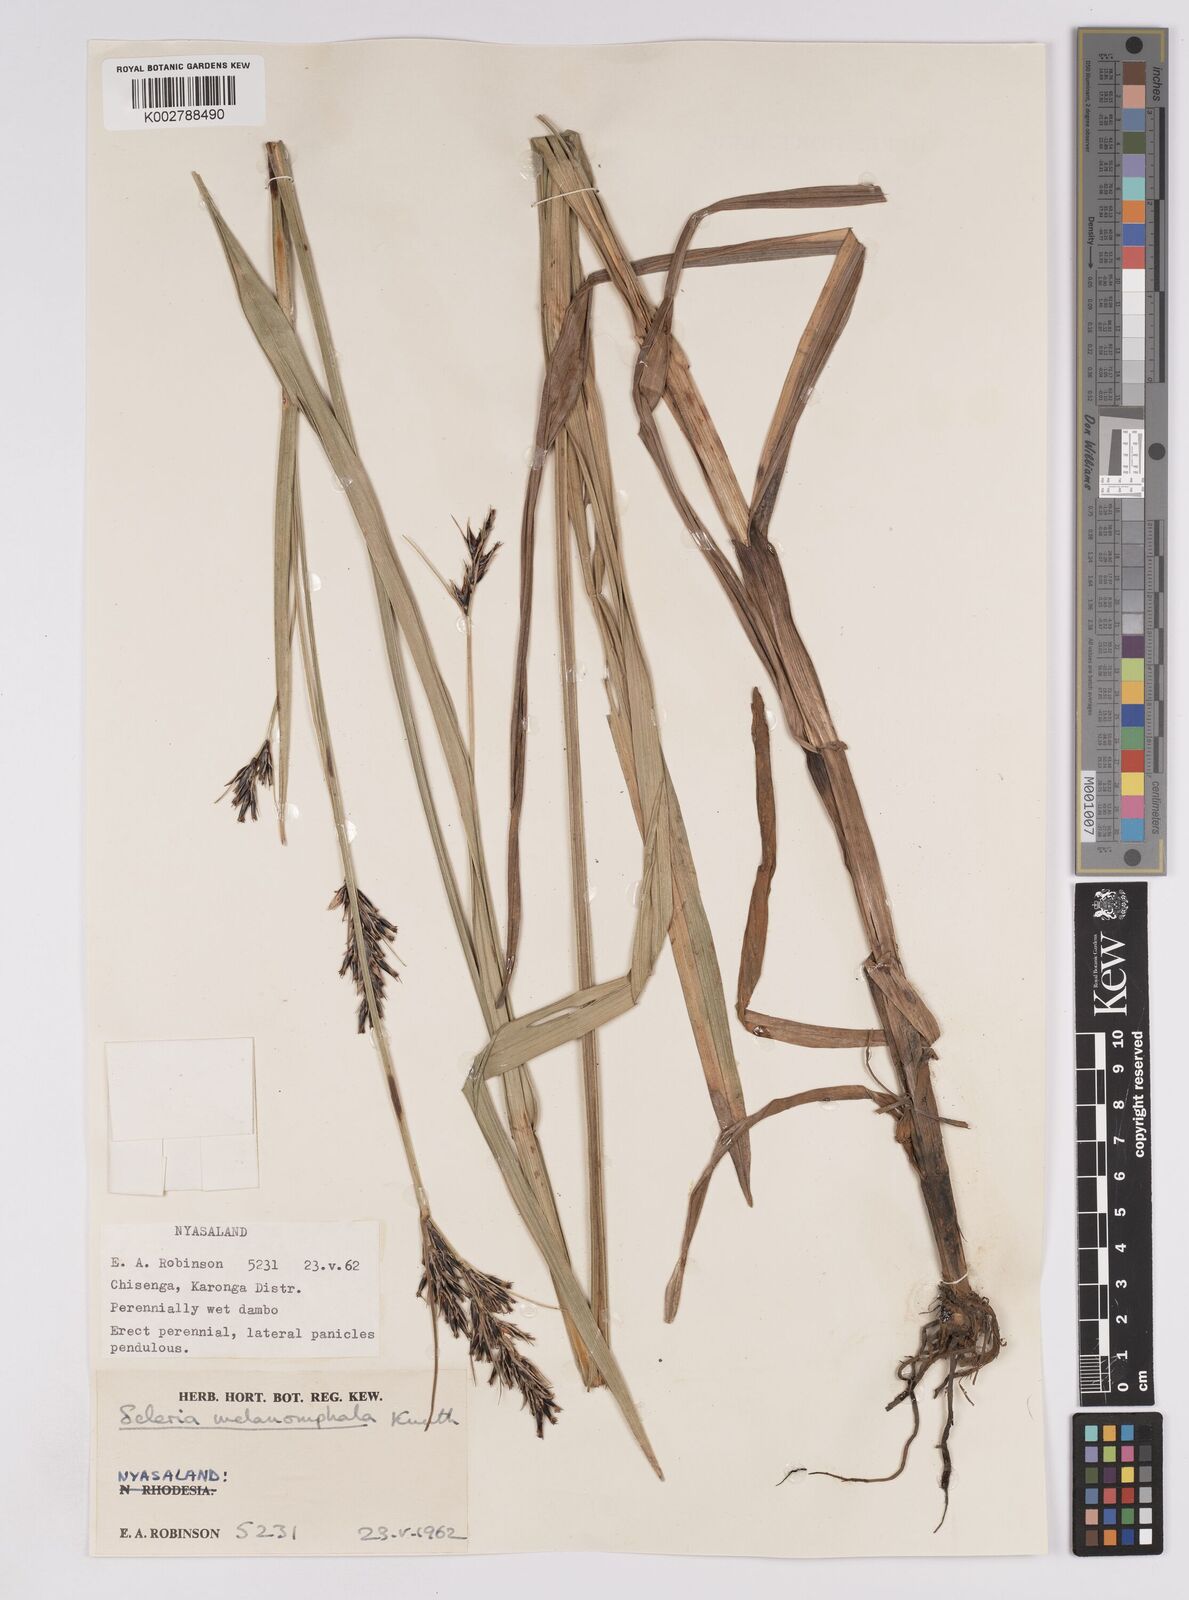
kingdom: Plantae
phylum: Tracheophyta
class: Liliopsida
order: Poales
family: Cyperaceae
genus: Scleria
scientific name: Scleria melanomphala
